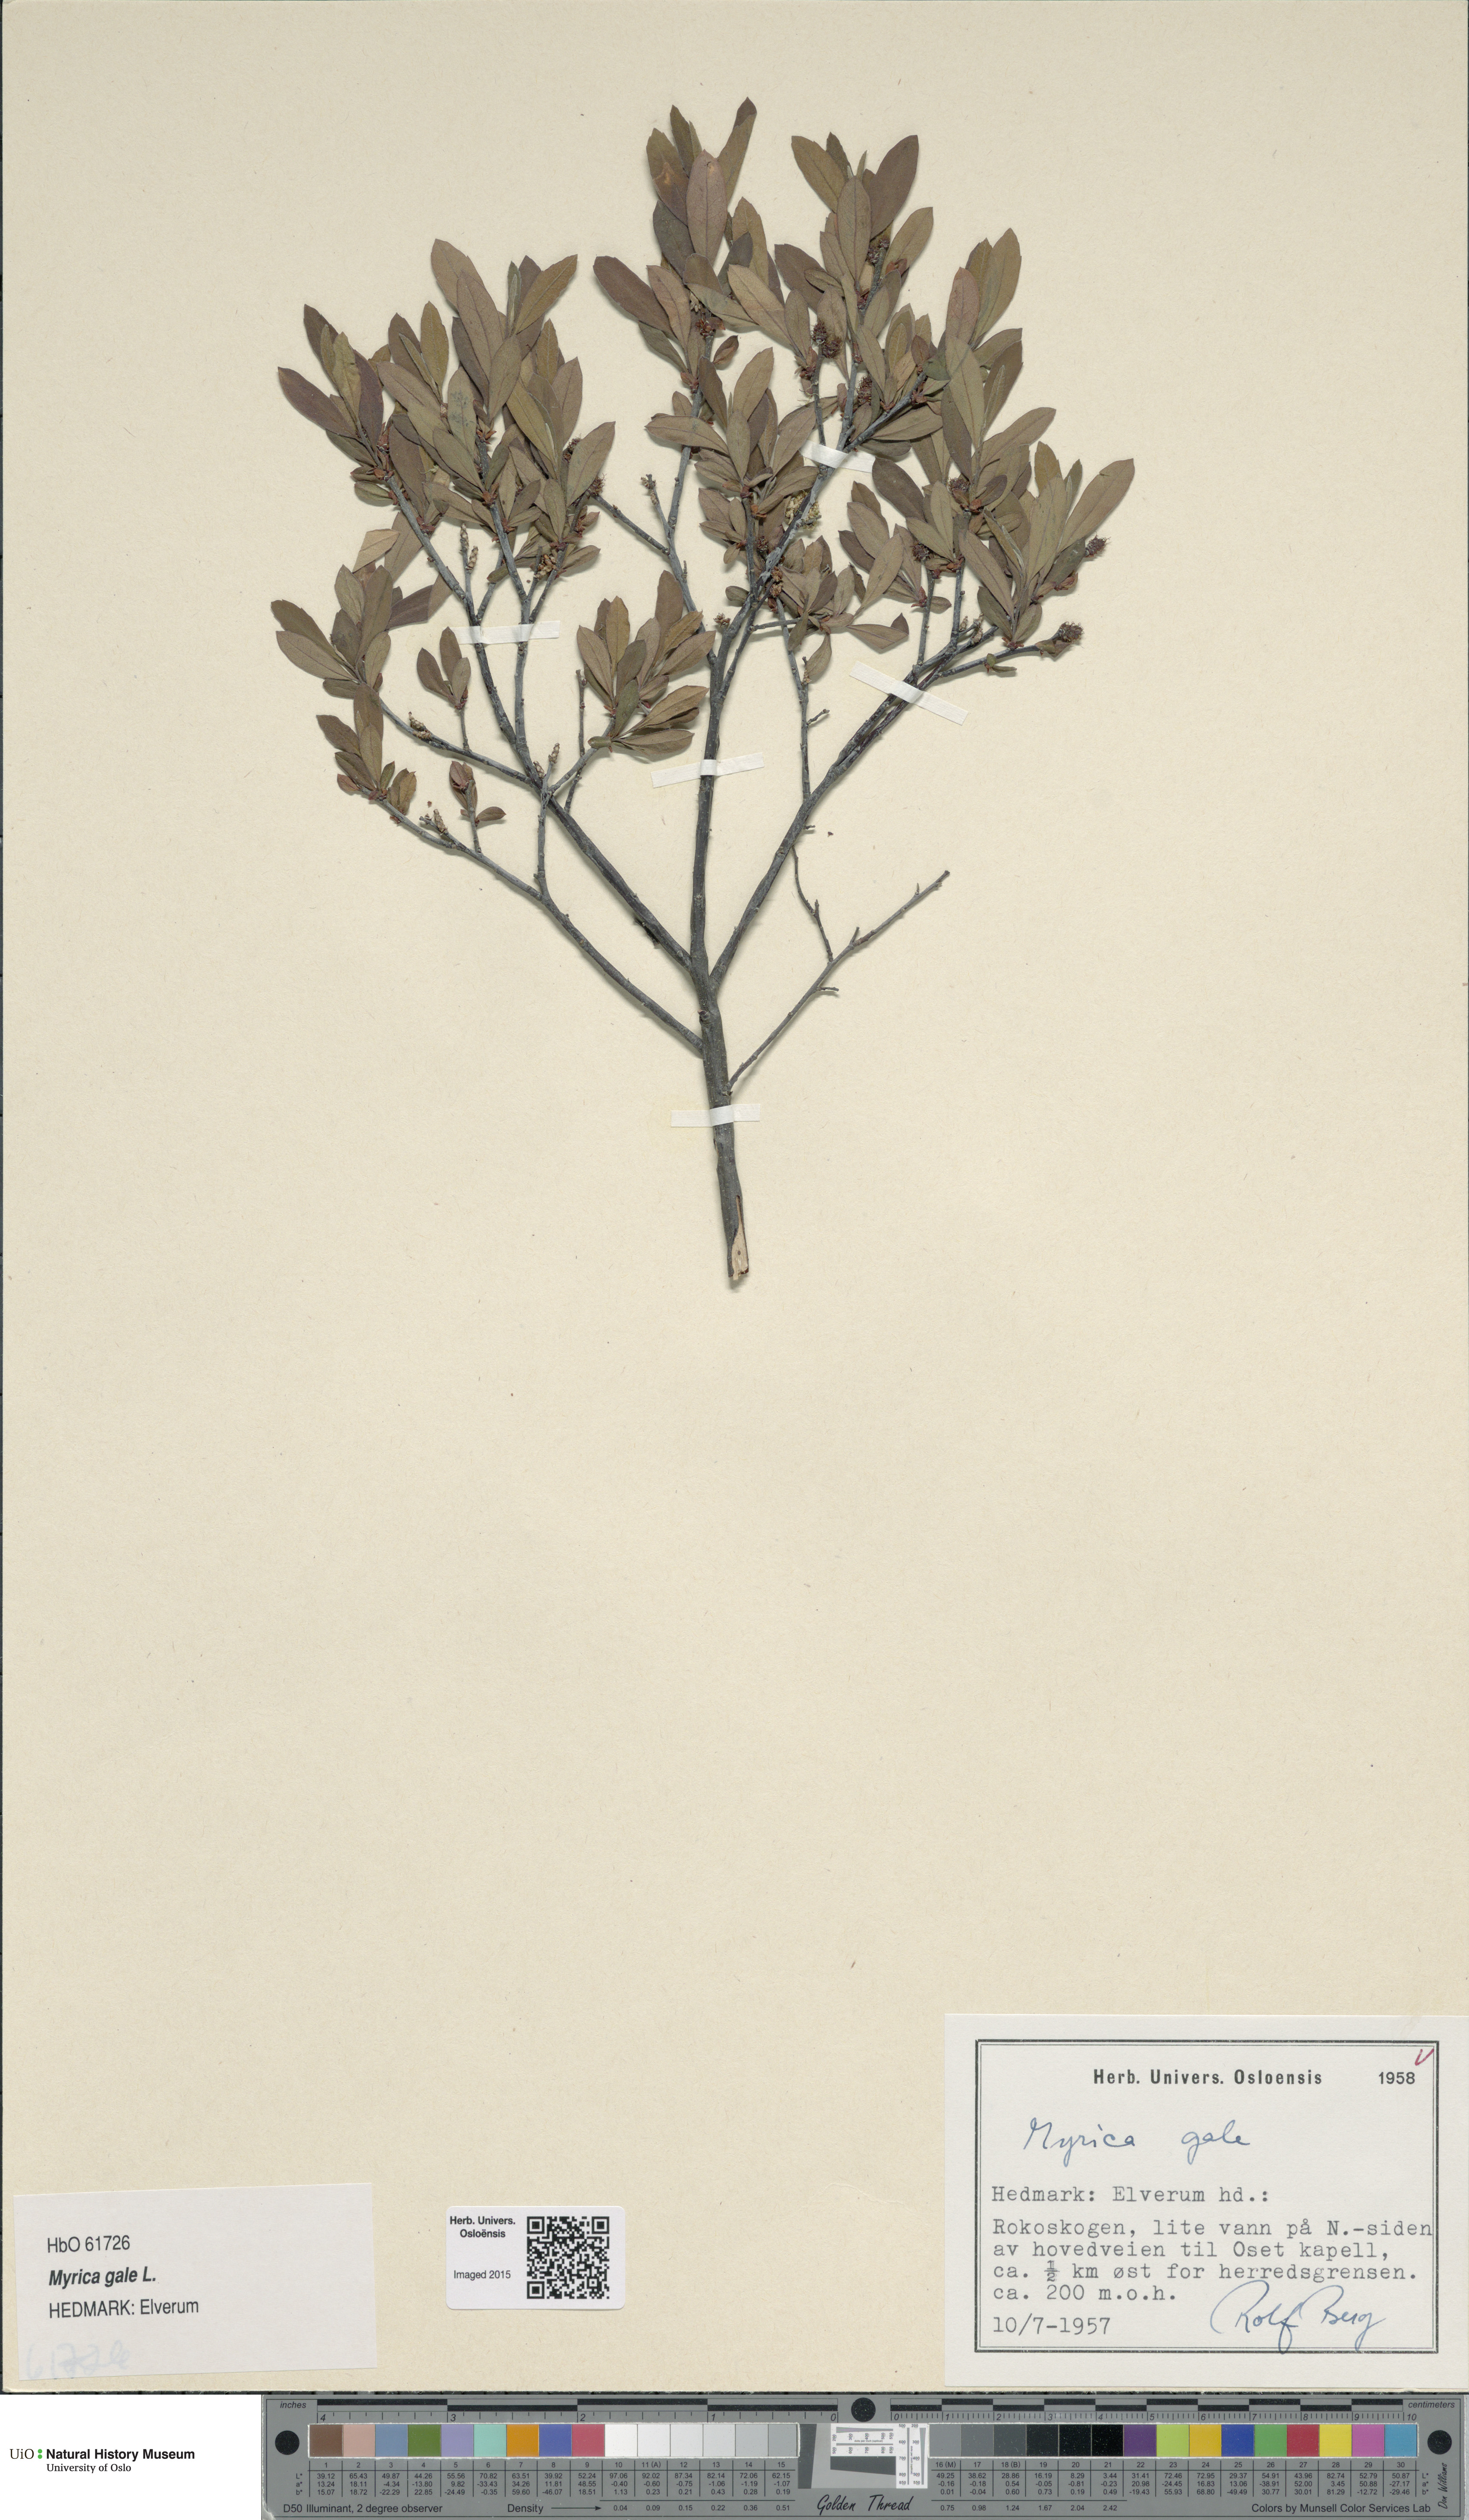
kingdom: Plantae
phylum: Tracheophyta
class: Magnoliopsida
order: Fagales
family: Myricaceae
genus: Myrica
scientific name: Myrica gale
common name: Sweet gale
